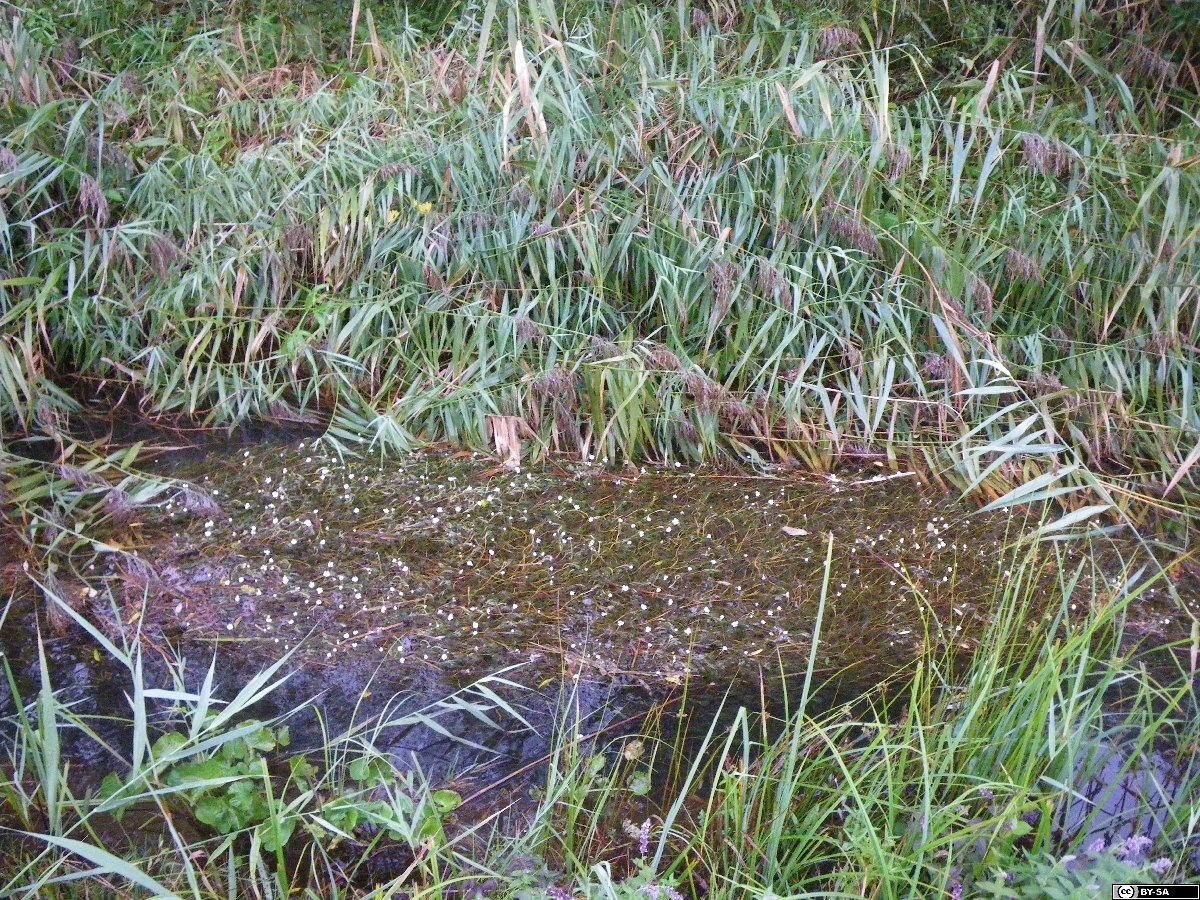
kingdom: Plantae
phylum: Tracheophyta
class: Magnoliopsida
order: Ranunculales
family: Ranunculaceae
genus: Ranunculus
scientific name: Ranunculus penicillatus
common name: Stream water-crowfoot
